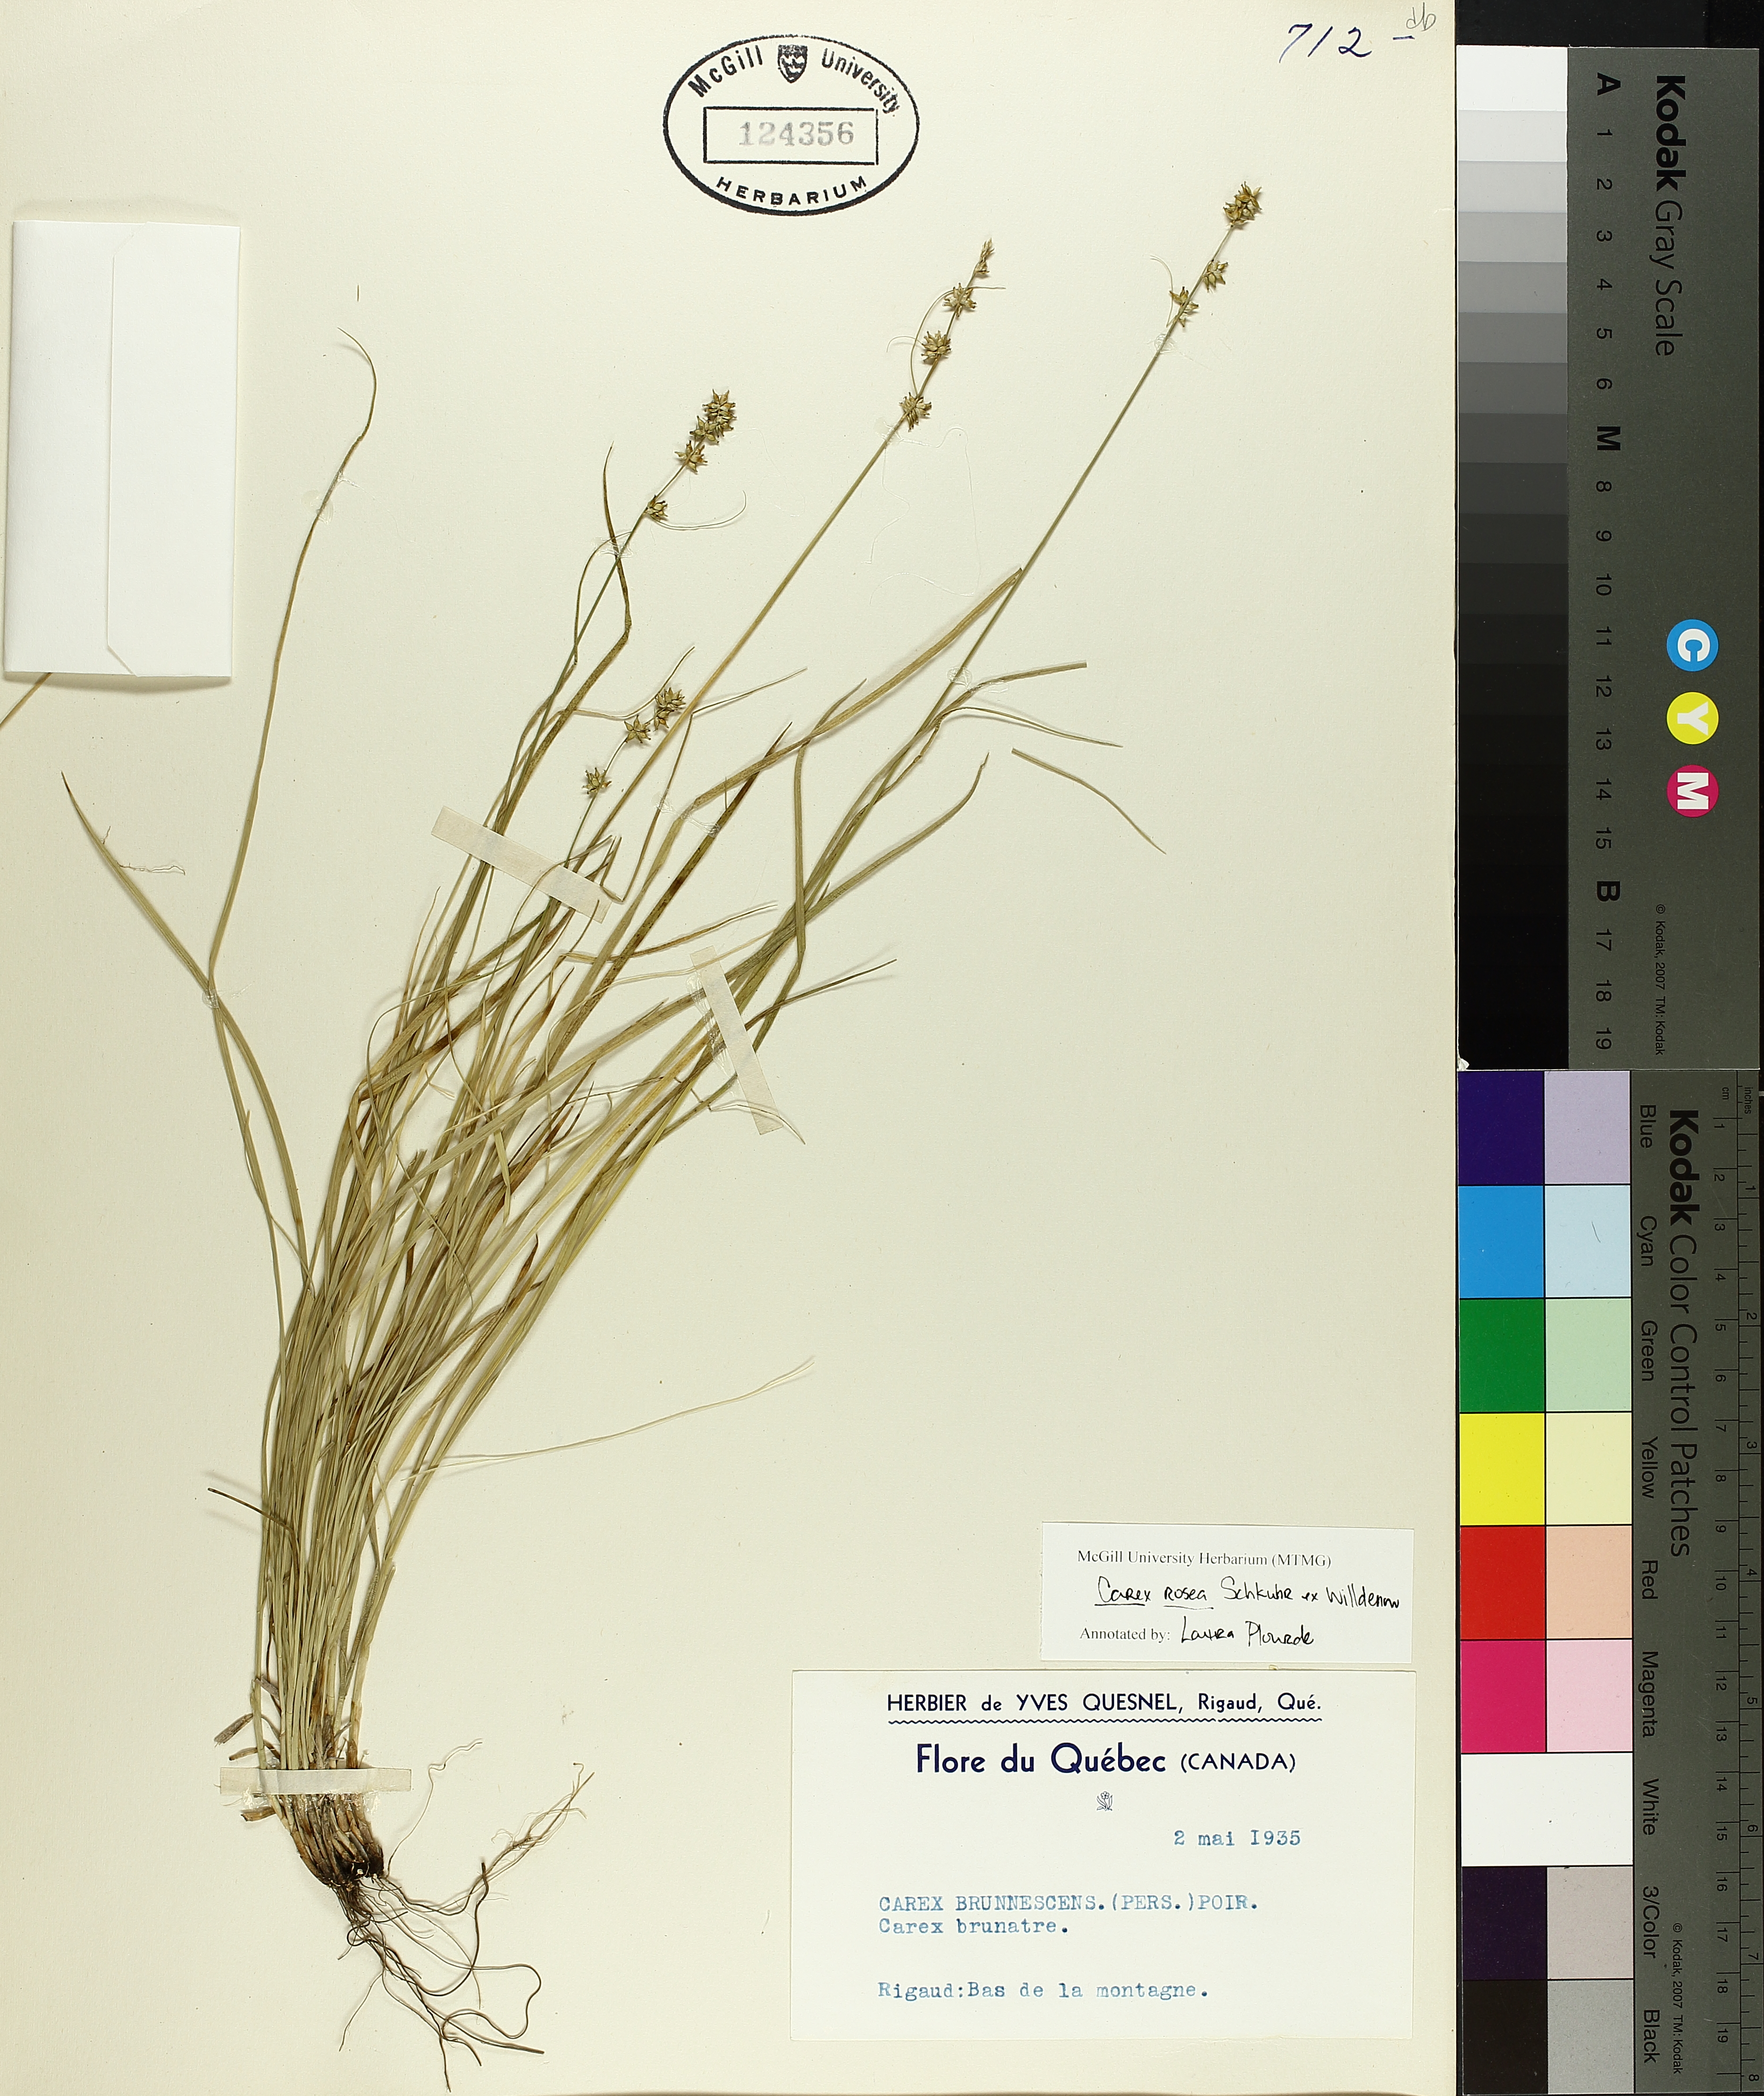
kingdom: Plantae
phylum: Tracheophyta
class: Liliopsida
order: Poales
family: Cyperaceae
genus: Carex
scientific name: Carex rosea
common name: Curly-styled wood sedge
